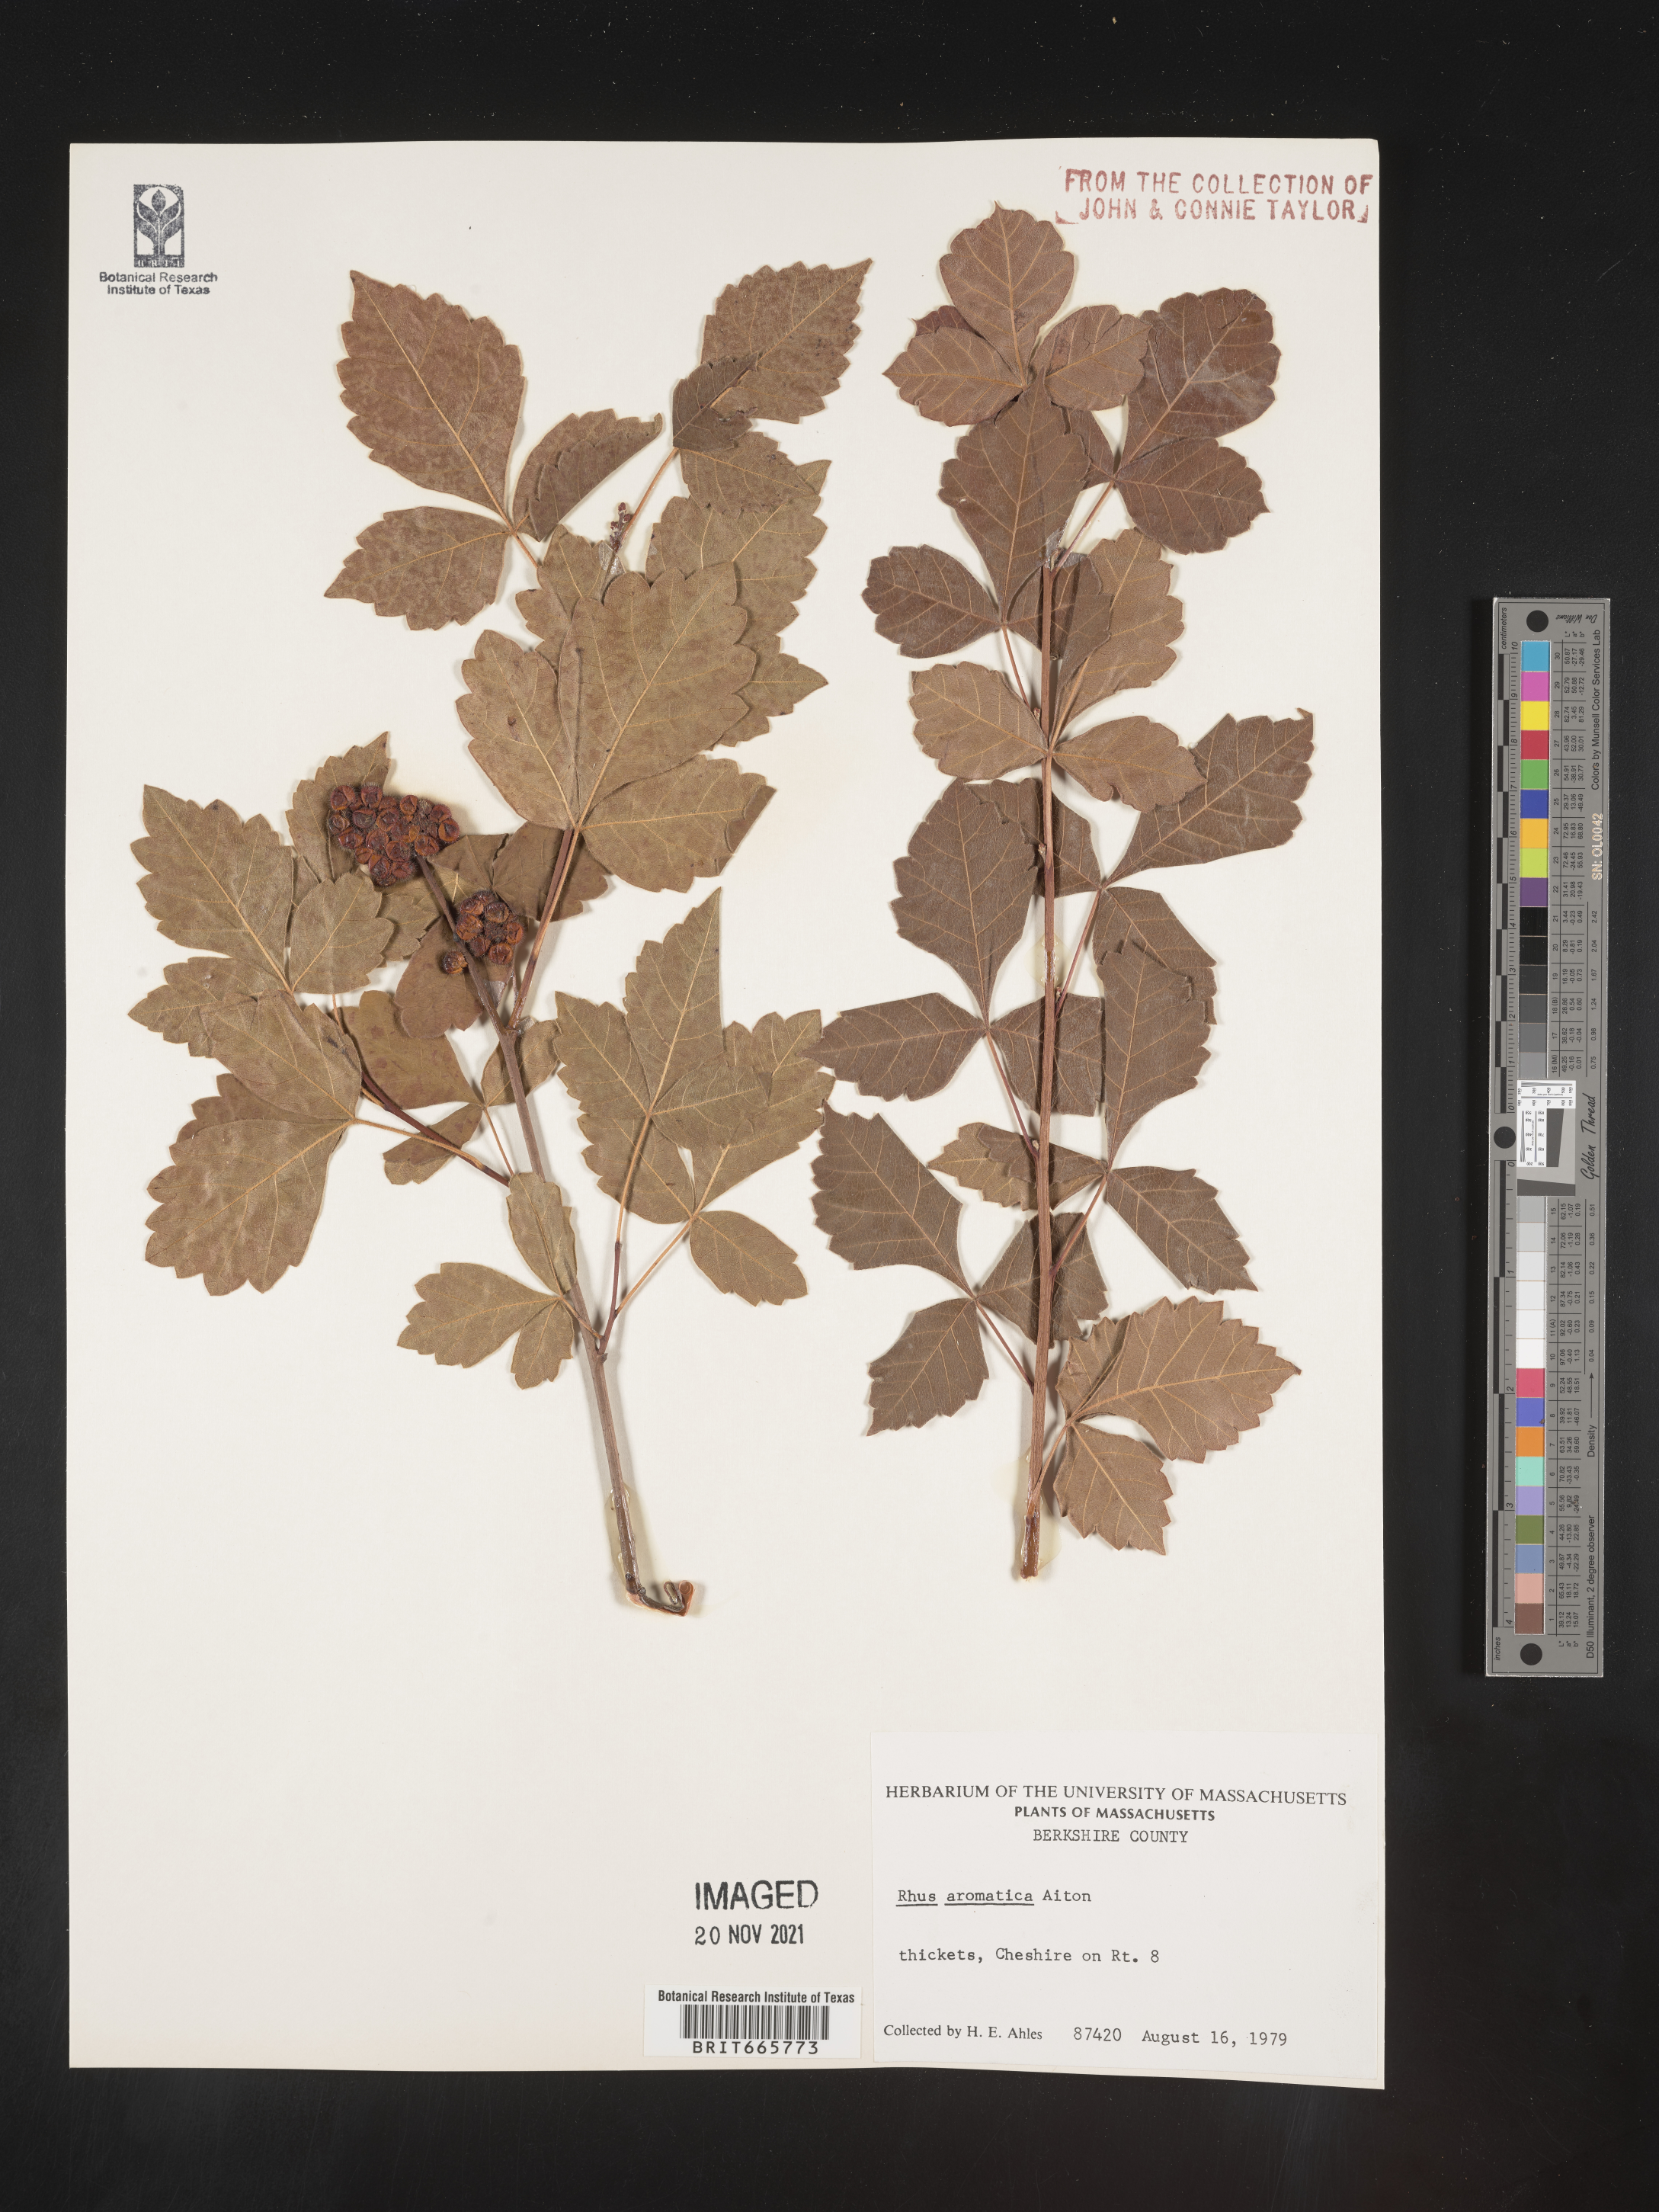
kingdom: Plantae
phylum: Tracheophyta
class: Magnoliopsida
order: Sapindales
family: Anacardiaceae
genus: Rhus
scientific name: Rhus aromatica
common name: Aromatic sumac
